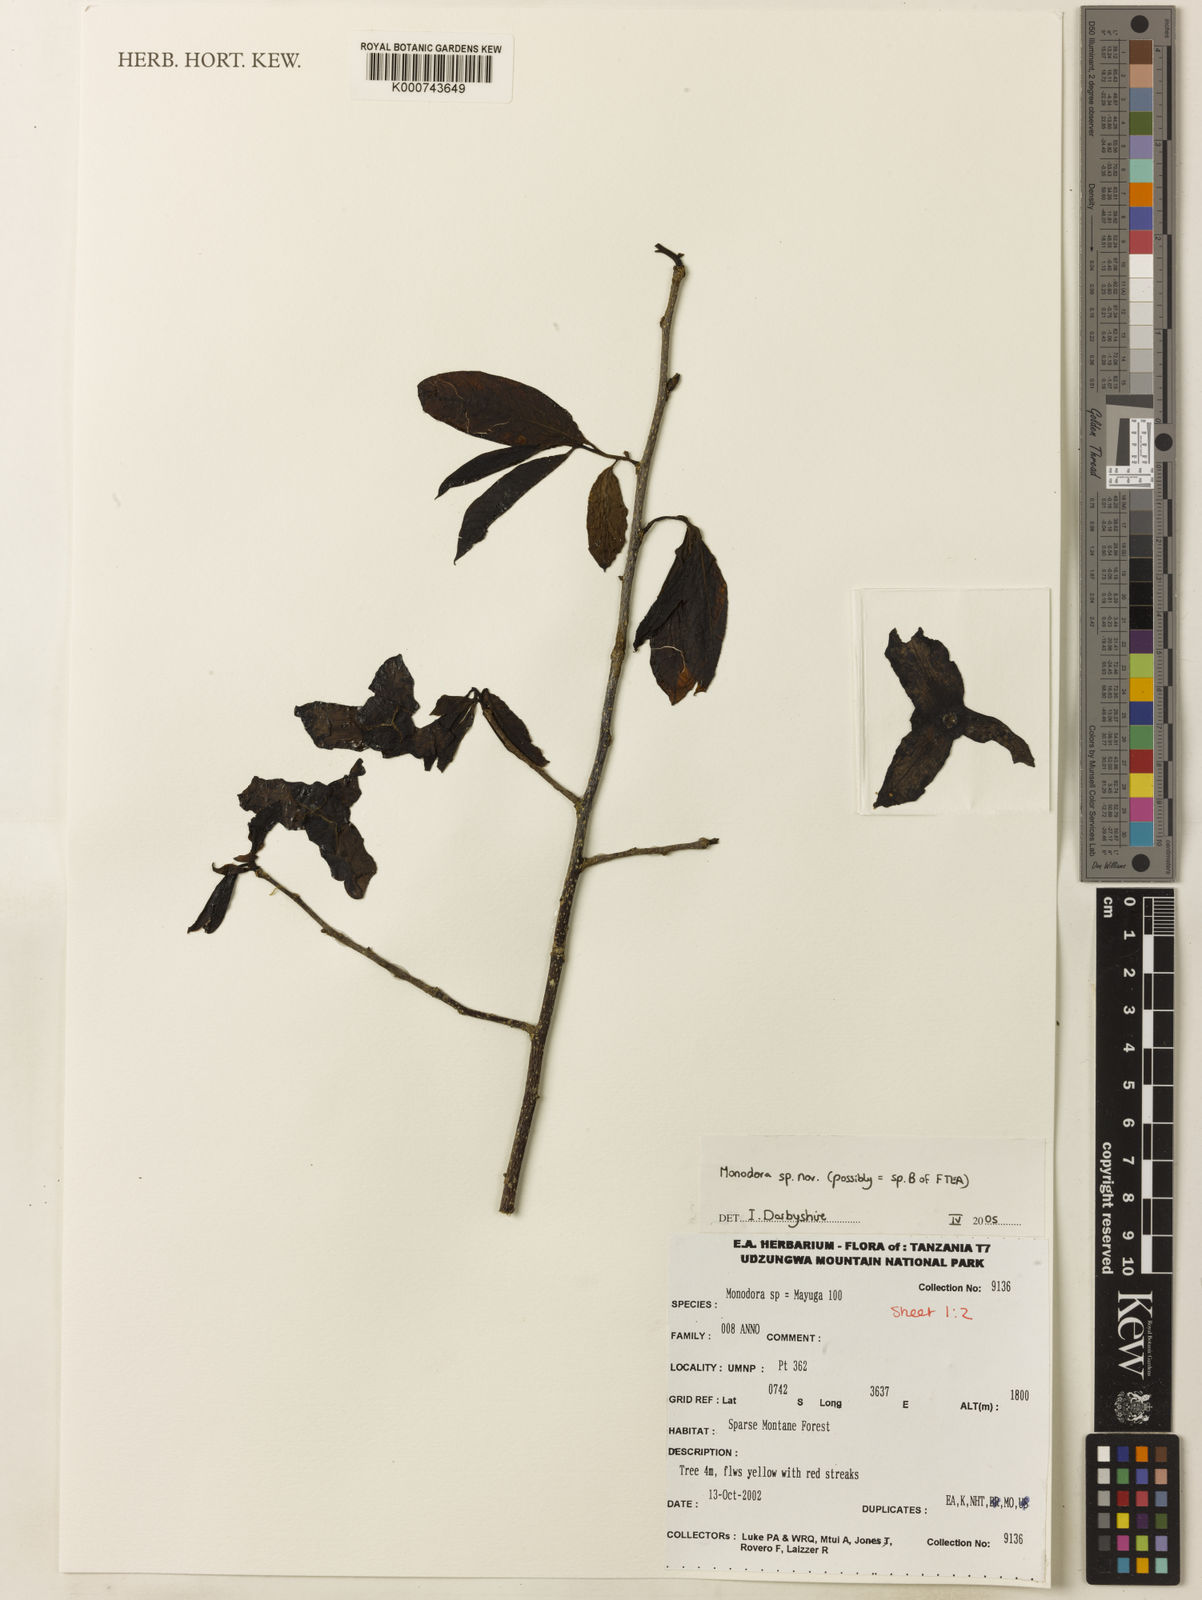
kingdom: Plantae
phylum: Tracheophyta
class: Magnoliopsida
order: Magnoliales
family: Annonaceae
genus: Monodora
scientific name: Monodora globiflora
